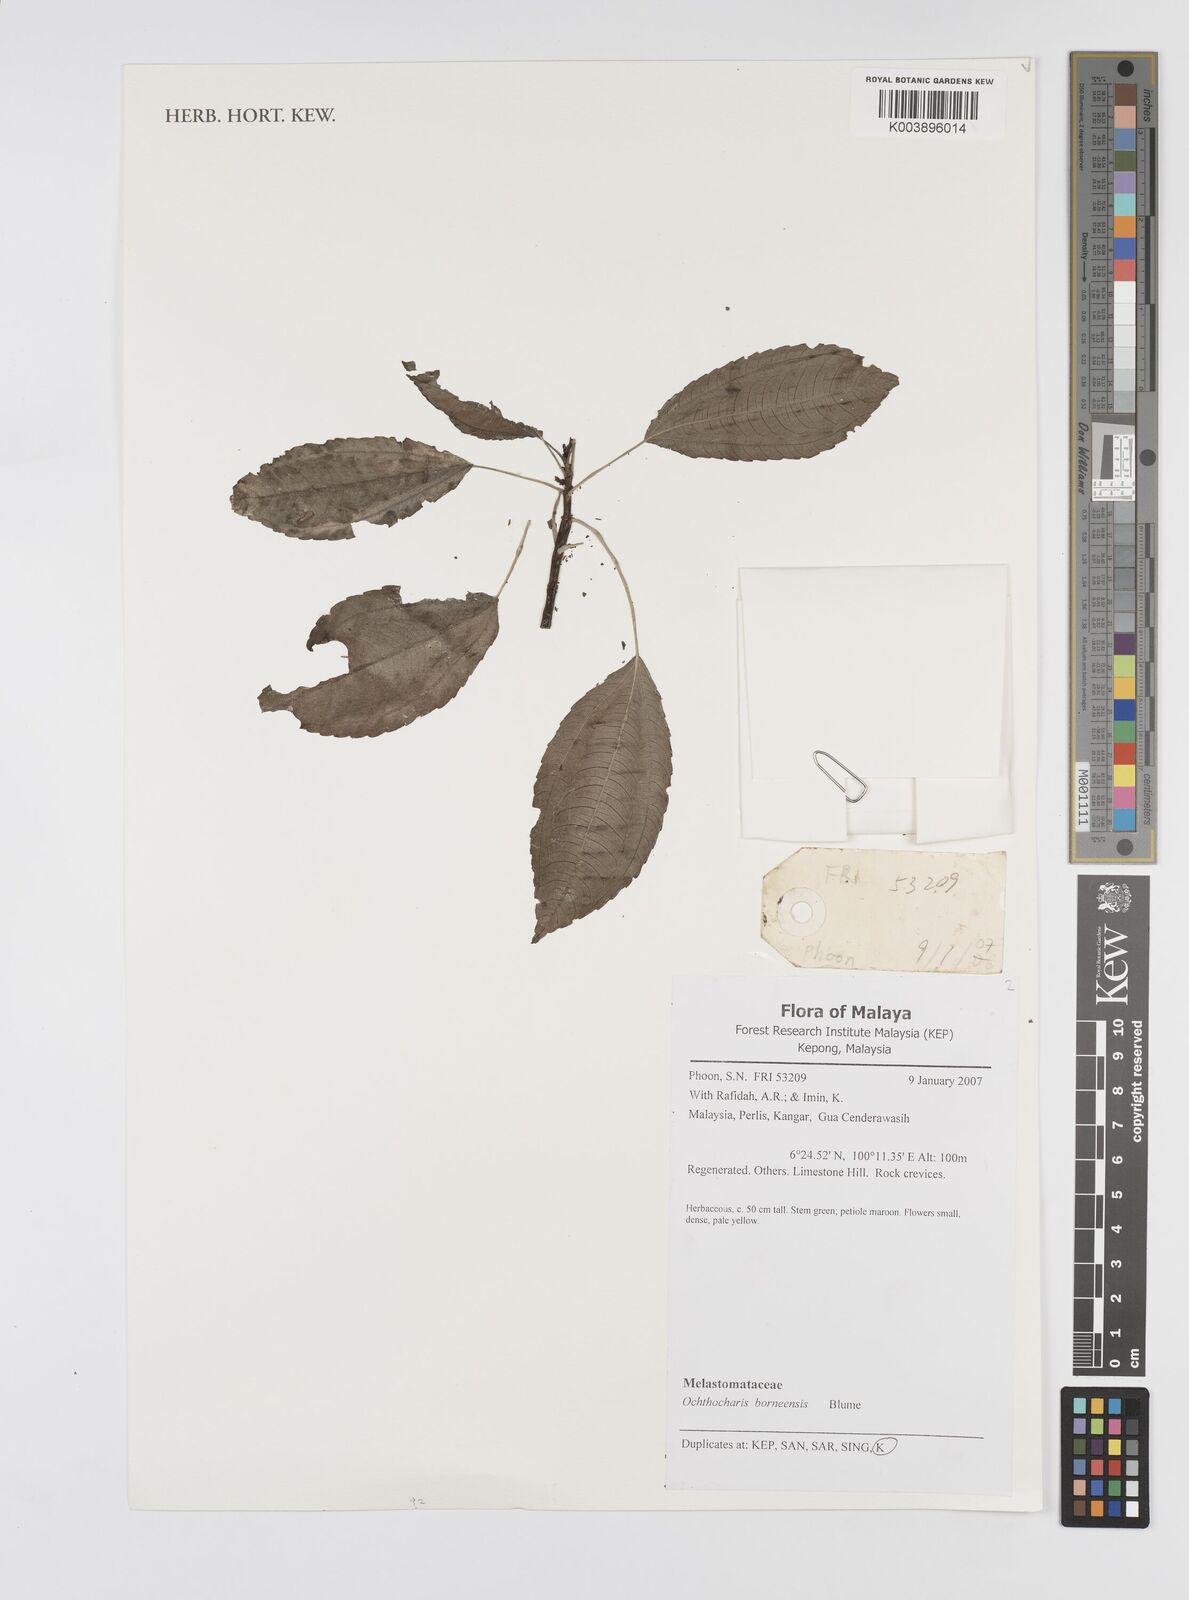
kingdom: Plantae
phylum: Tracheophyta
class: Magnoliopsida
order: Myrtales
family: Melastomataceae
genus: Ochthocharis
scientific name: Ochthocharis bornensis
